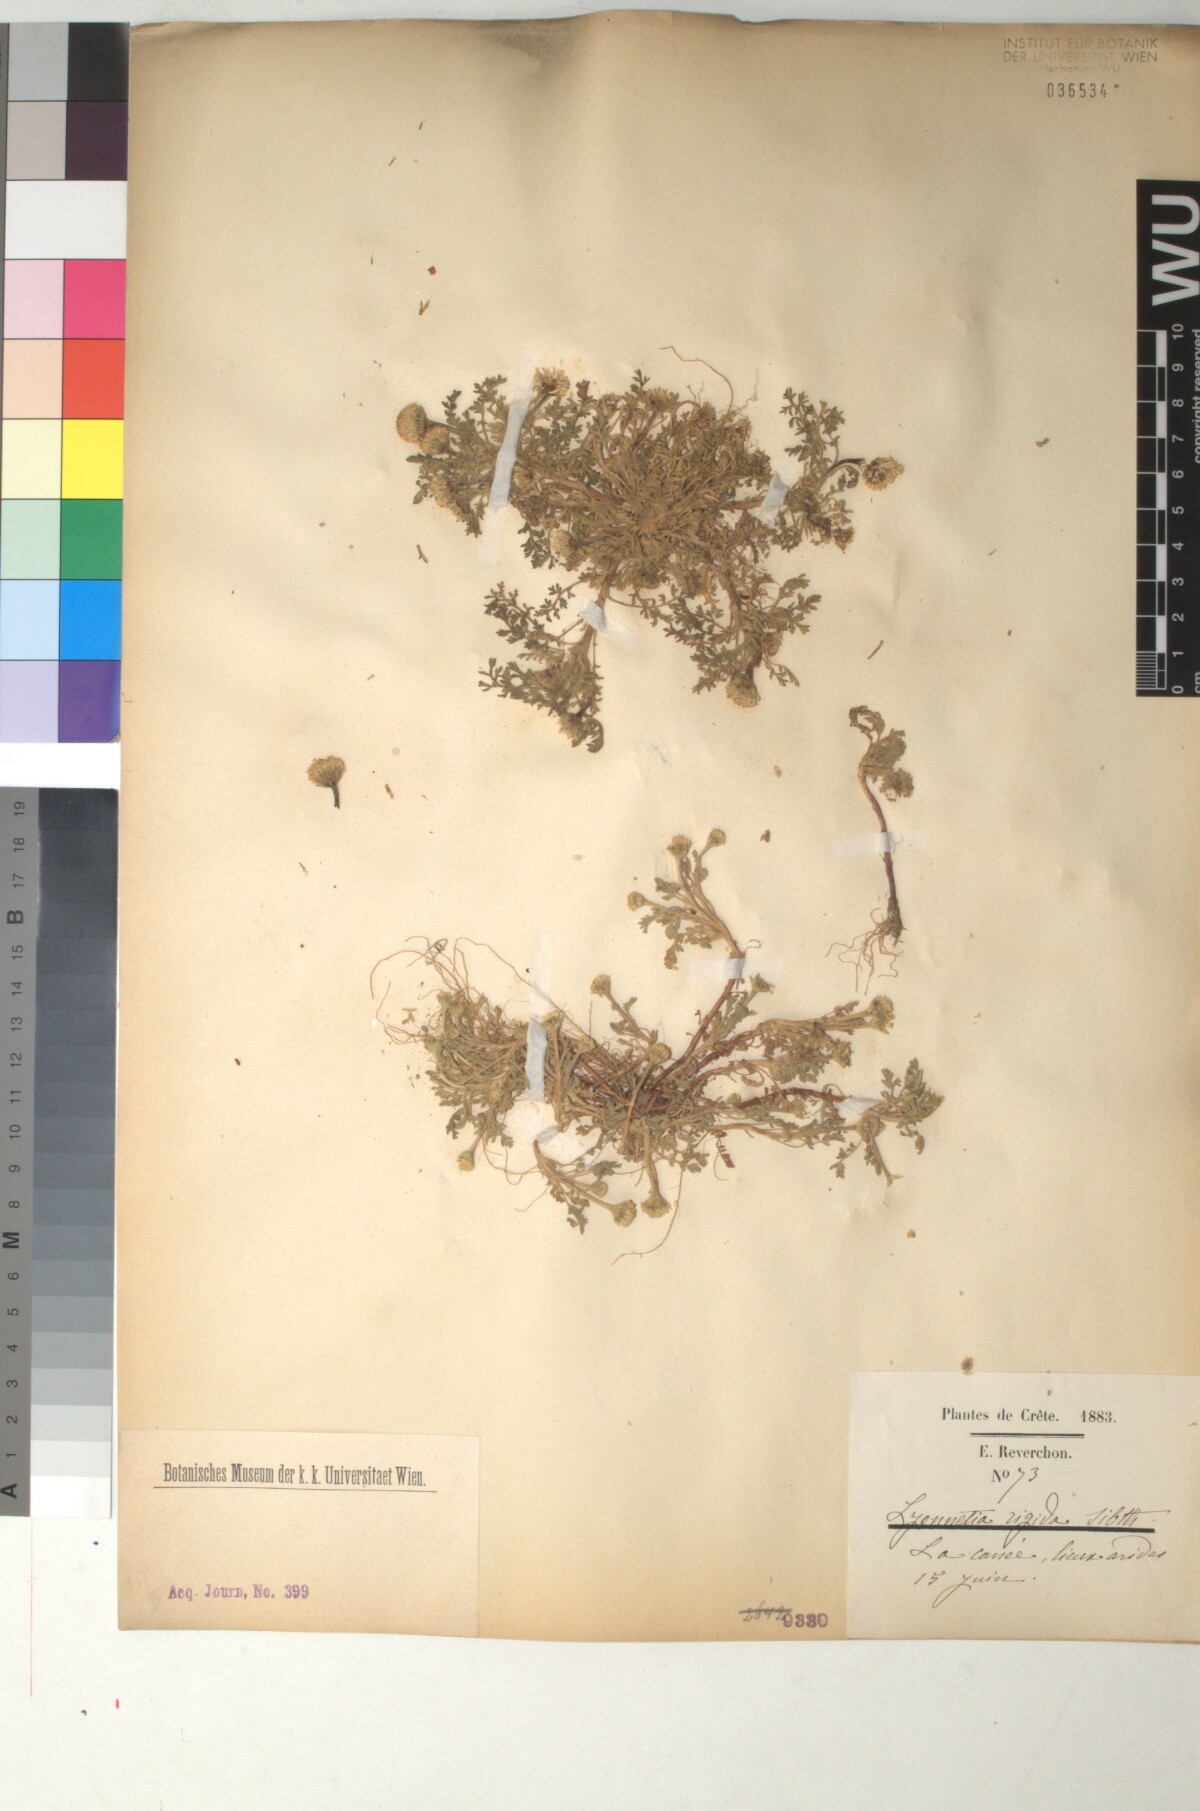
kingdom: Plantae
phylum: Tracheophyta
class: Magnoliopsida
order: Asterales
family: Asteraceae
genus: Anthemis
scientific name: Anthemis rigida
